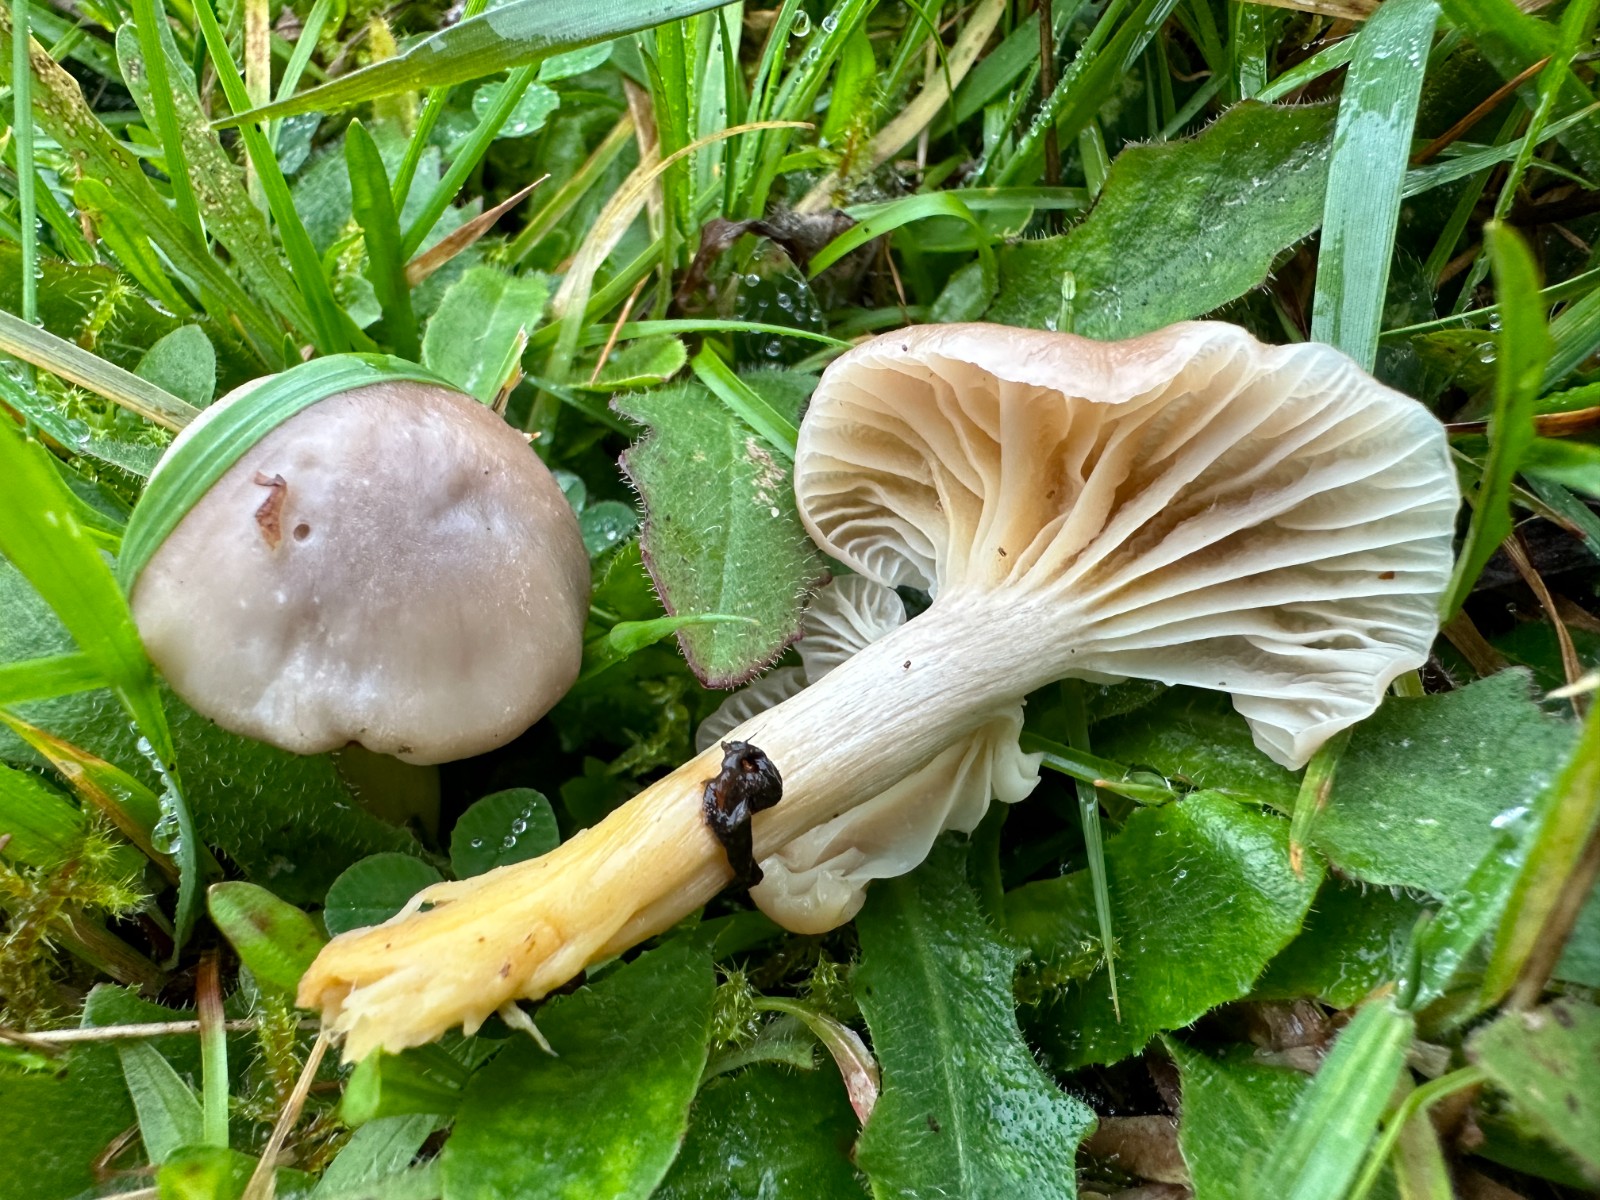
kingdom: Fungi
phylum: Basidiomycota
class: Agaricomycetes
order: Agaricales
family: Hygrophoraceae
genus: Cuphophyllus
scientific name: Cuphophyllus flavipes
